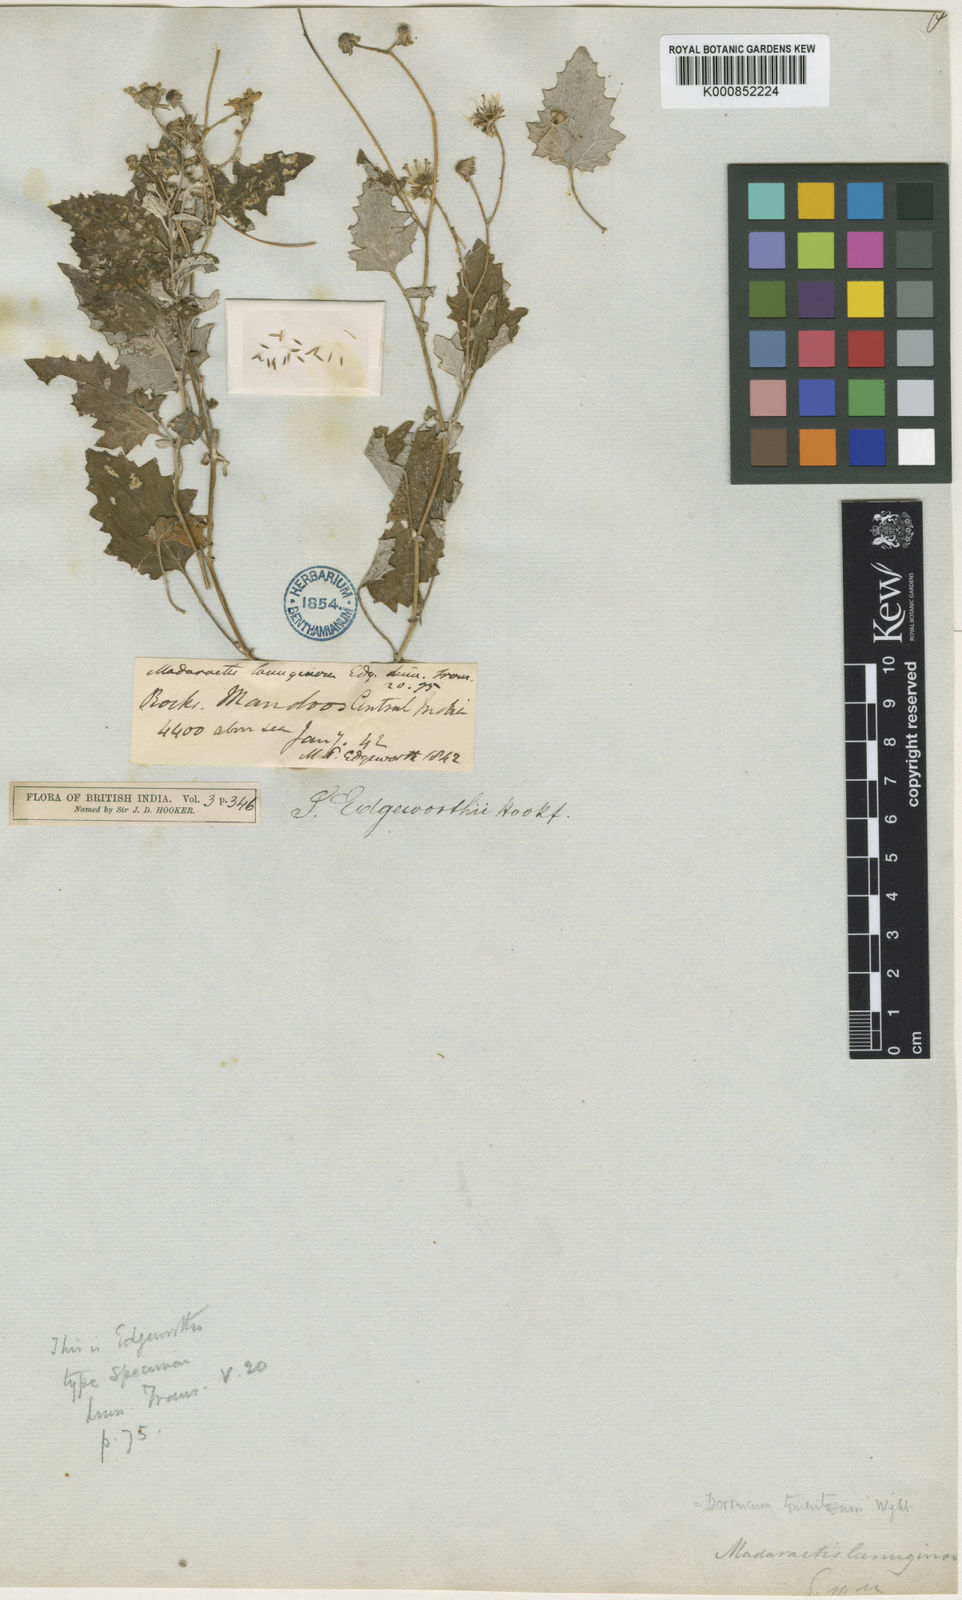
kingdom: Plantae
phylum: Tracheophyta
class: Magnoliopsida
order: Asterales
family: Asteraceae
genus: Senecio
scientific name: Senecio edgeworthii
